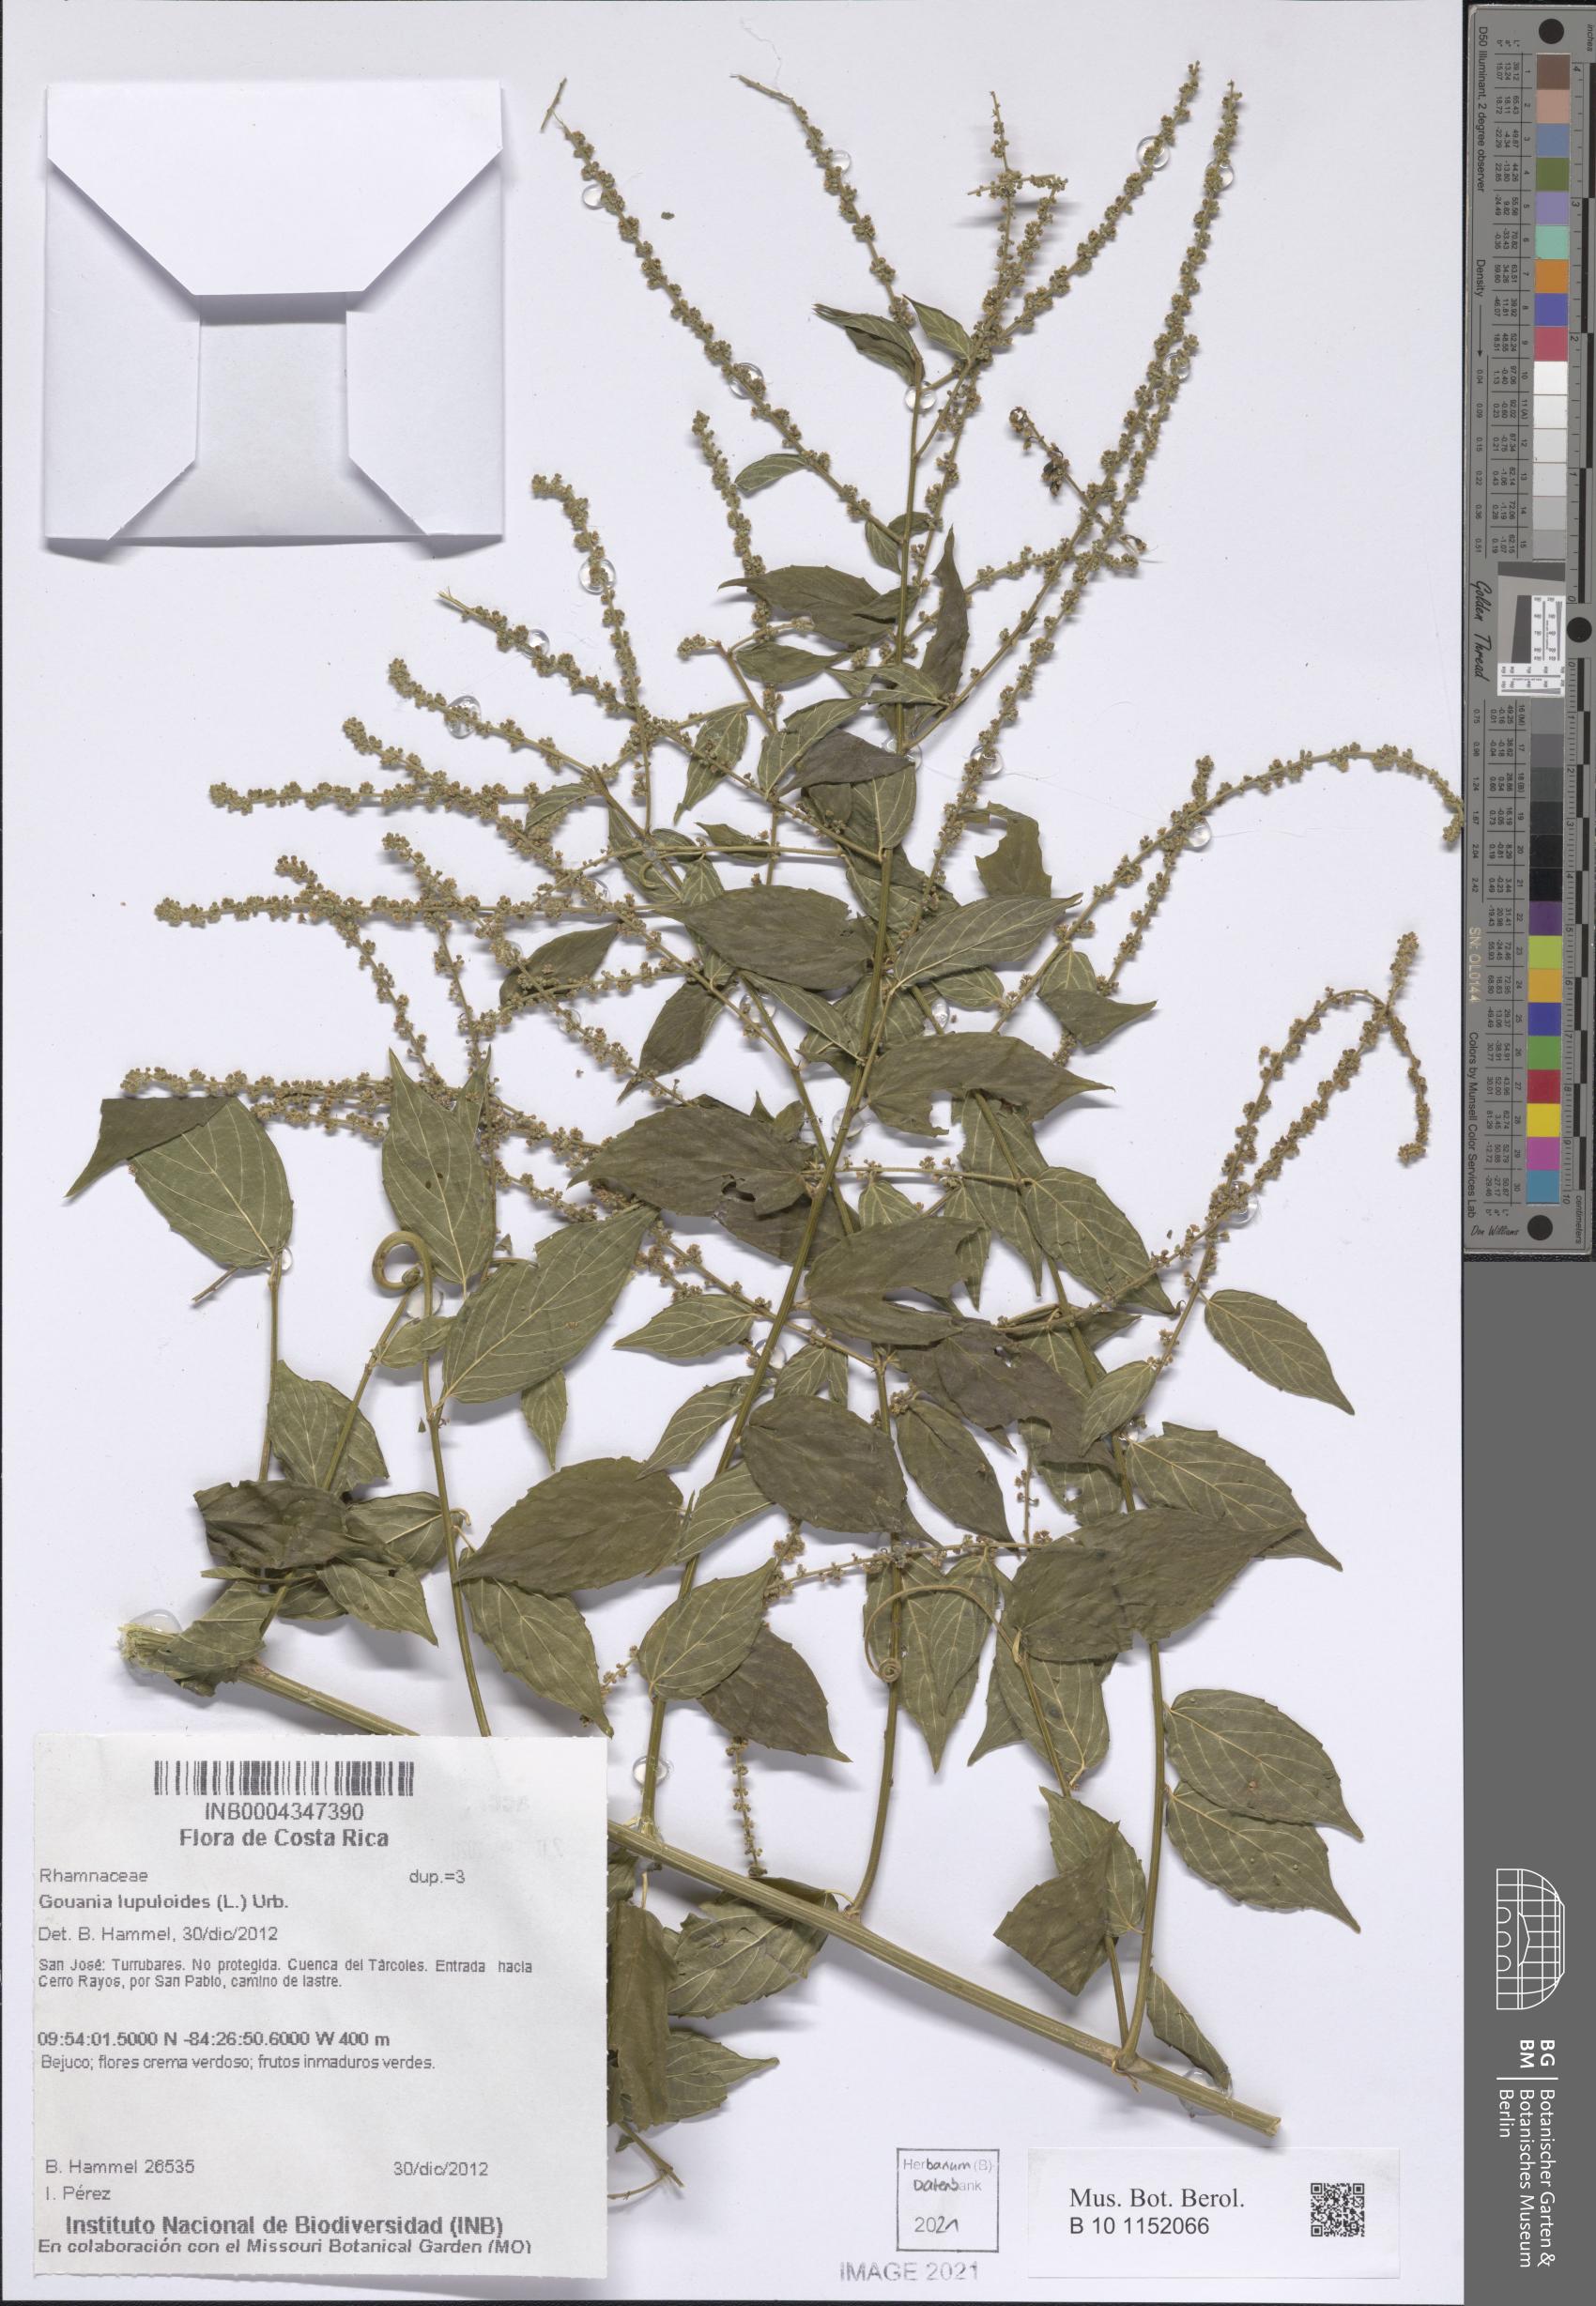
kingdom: Plantae
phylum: Tracheophyta
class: Magnoliopsida
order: Rosales
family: Rhamnaceae
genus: Gouania
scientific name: Gouania lupuloides
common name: Chewstick
